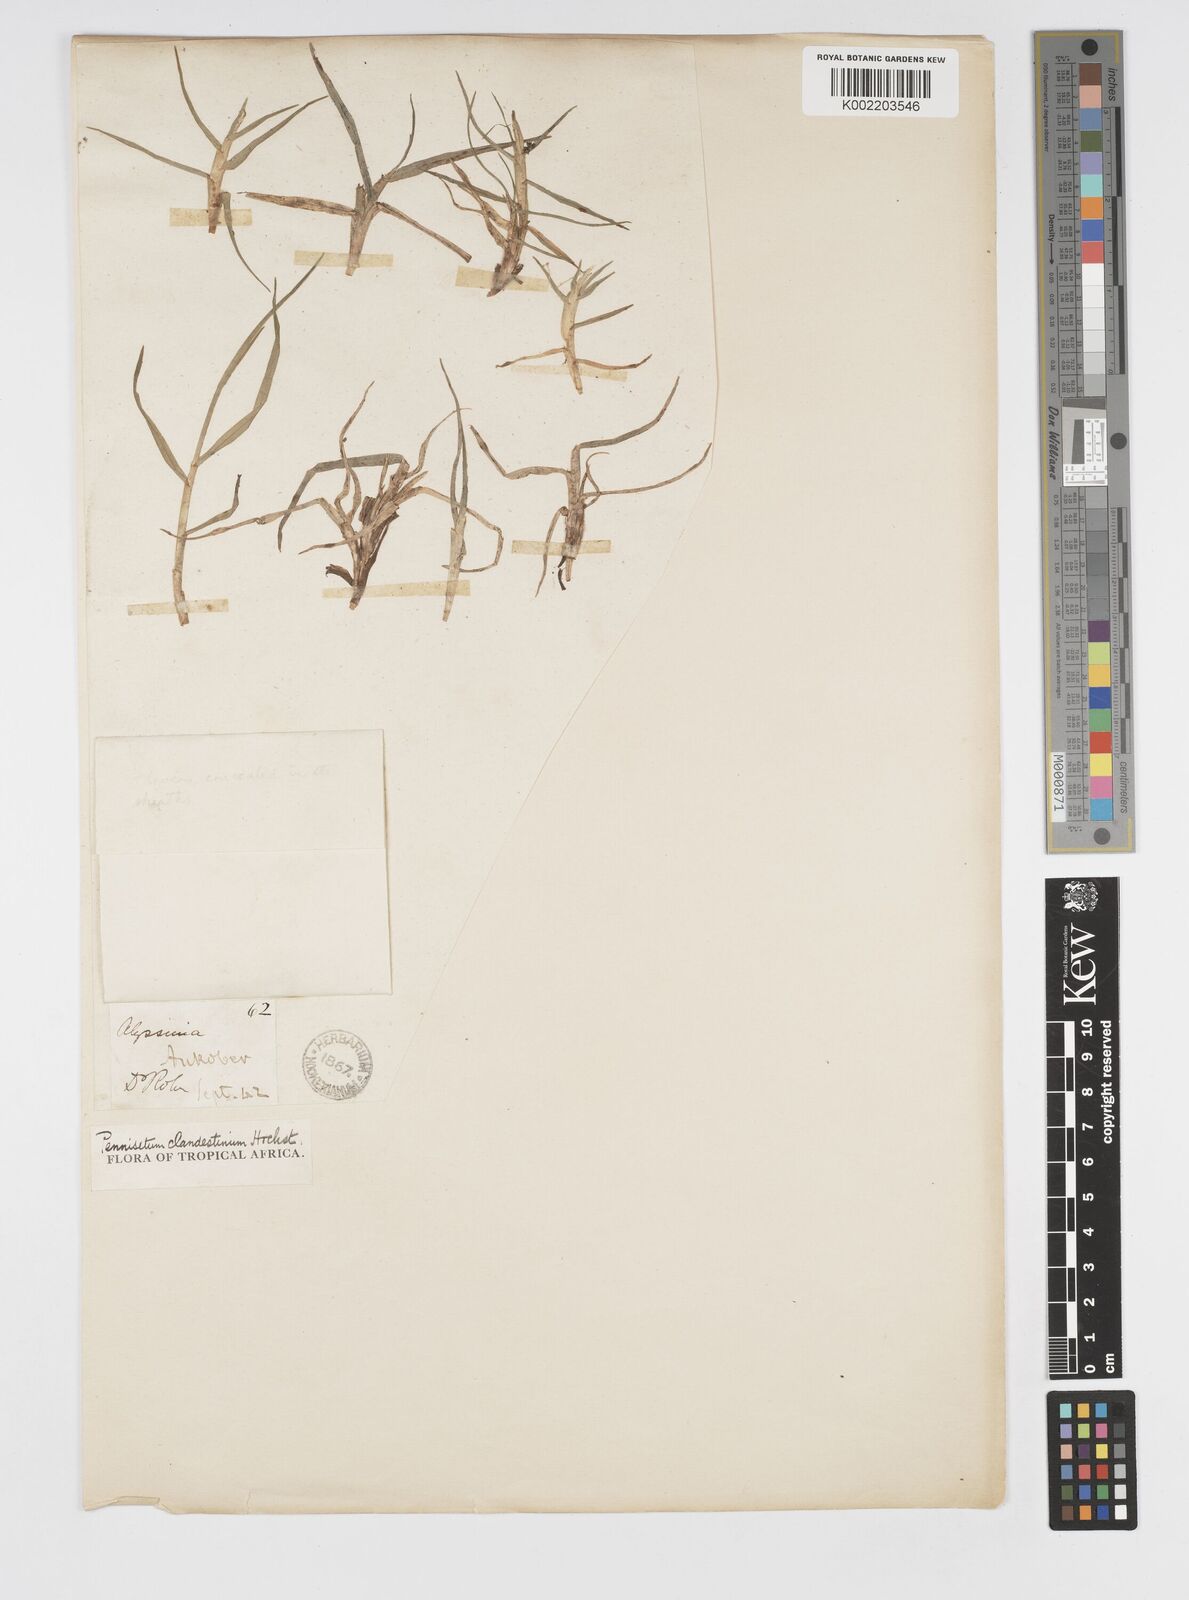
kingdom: Plantae
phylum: Tracheophyta
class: Liliopsida
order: Poales
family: Poaceae
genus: Cenchrus
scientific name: Cenchrus clandestinus
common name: Kikuyugrass
